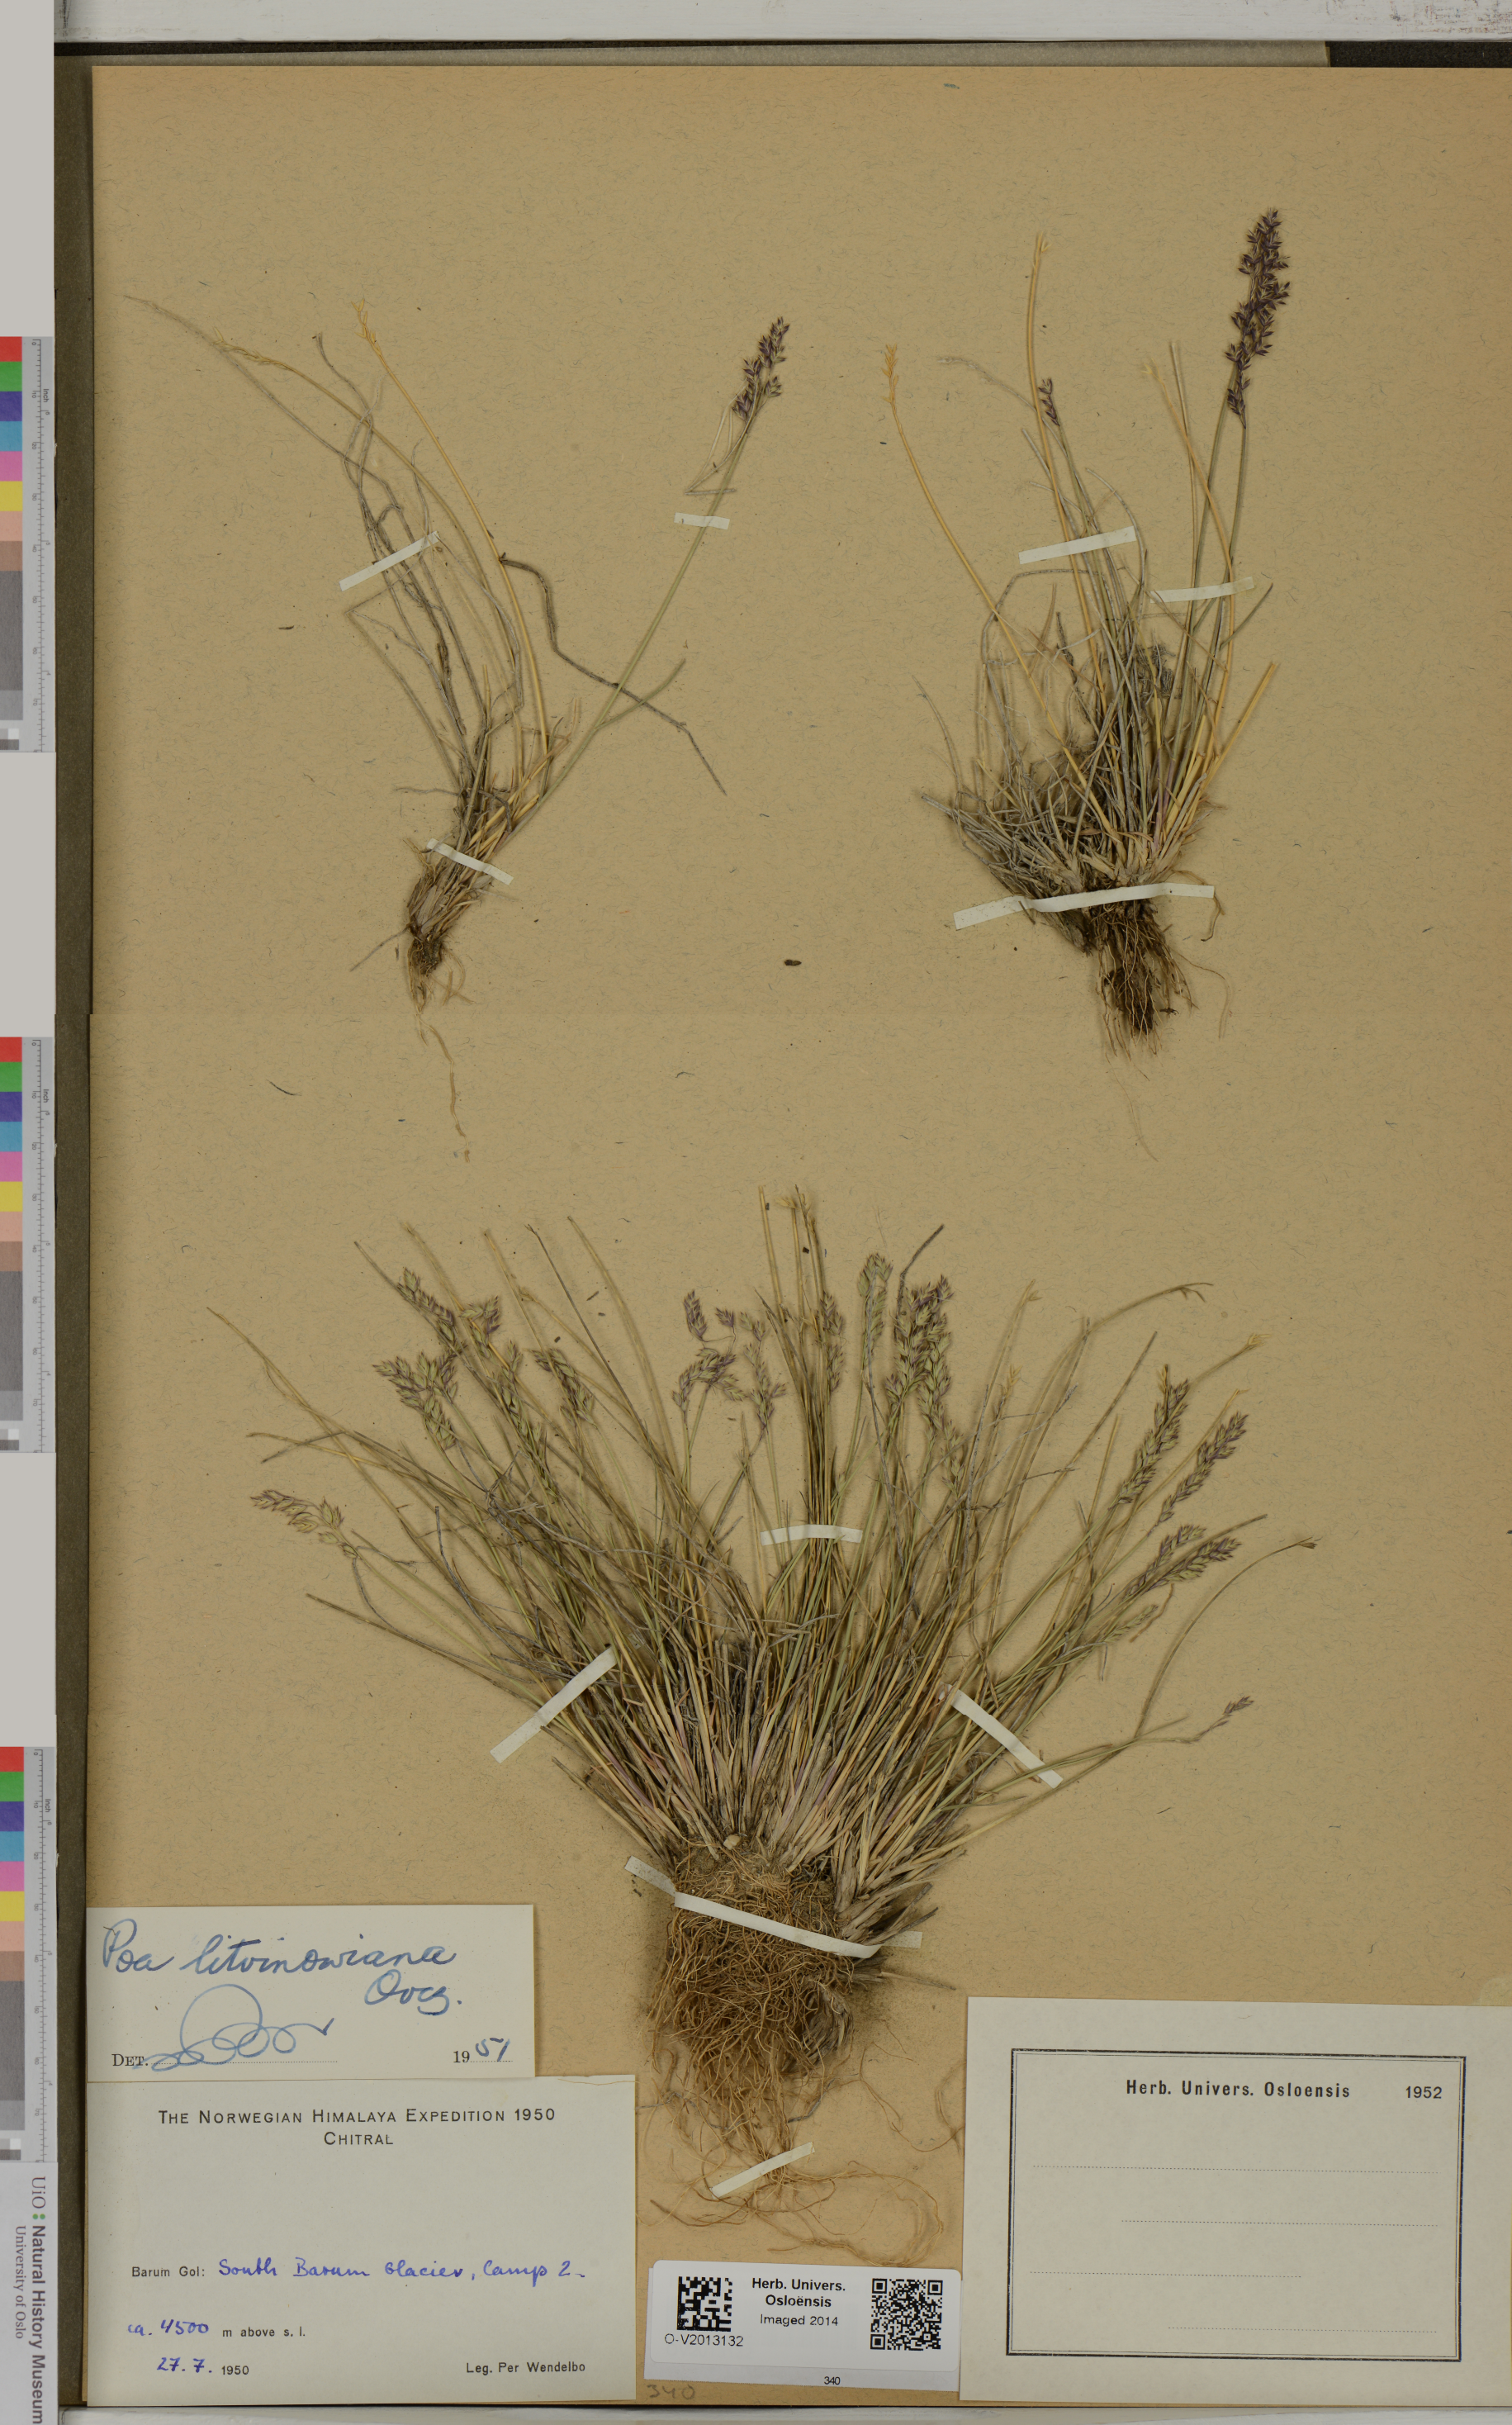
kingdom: Plantae
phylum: Tracheophyta
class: Liliopsida
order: Poales
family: Poaceae
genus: Poa
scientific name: Poa glauca
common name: Glaucous bluegrass
